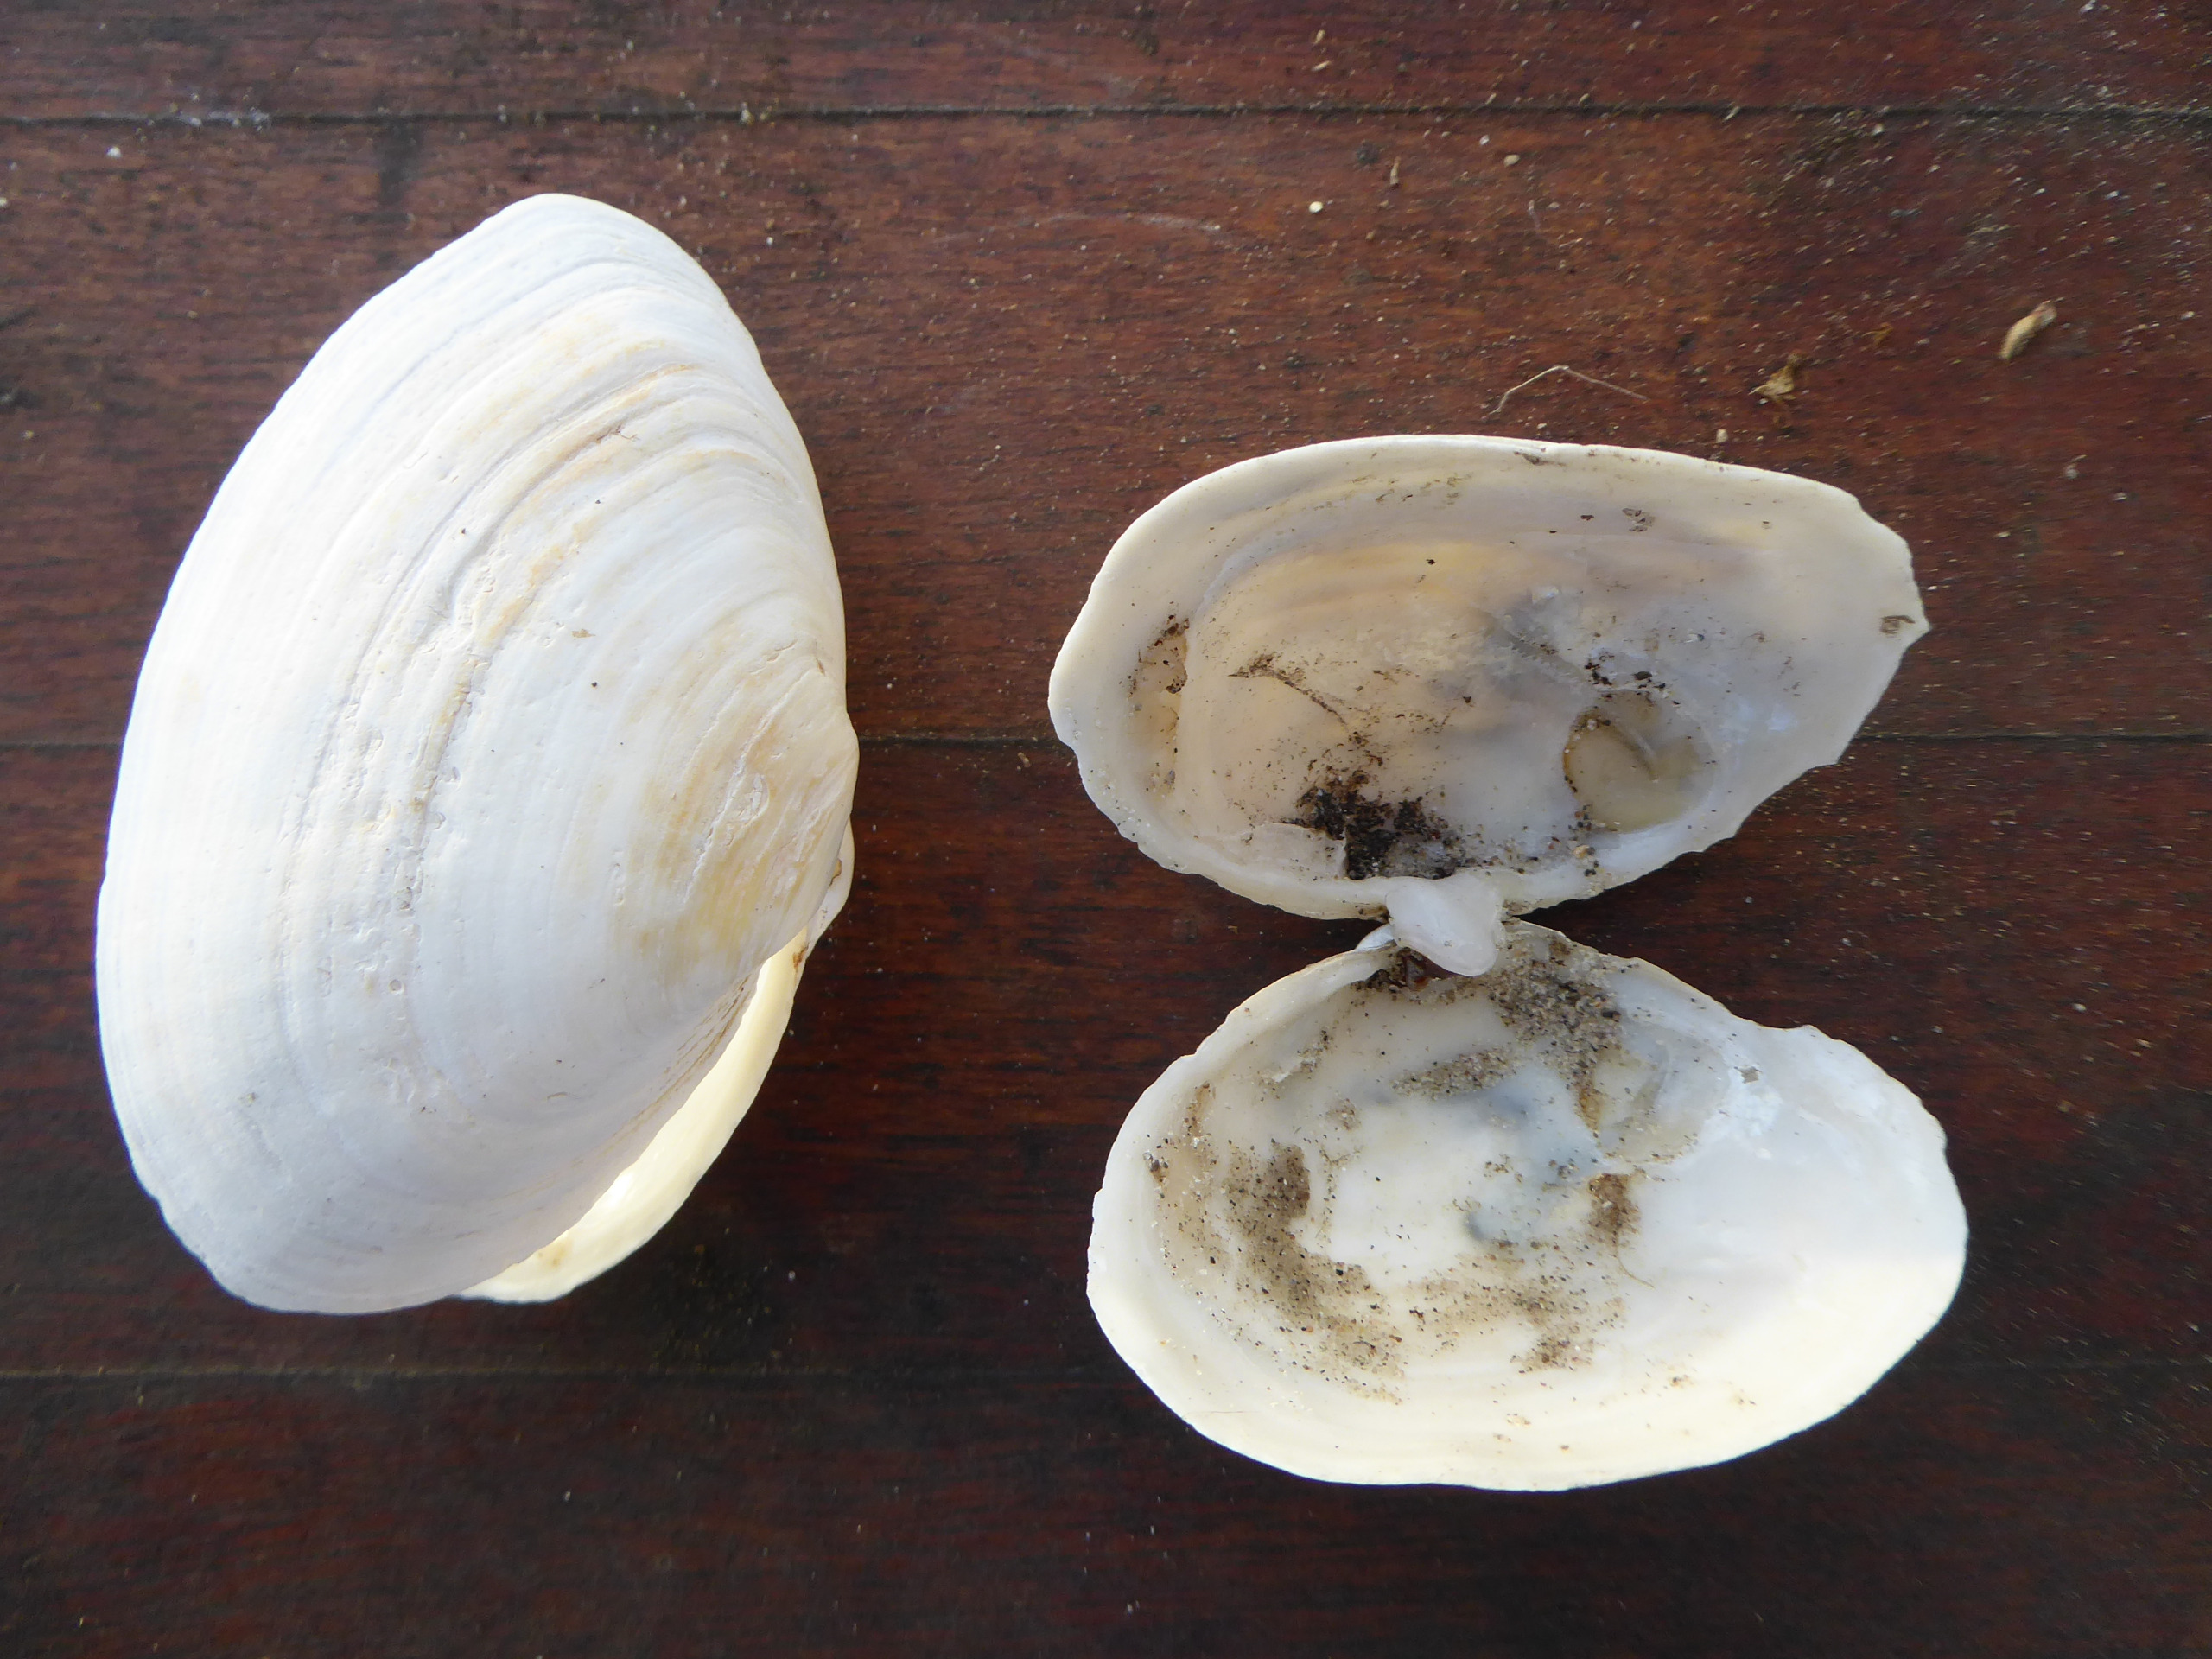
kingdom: Animalia
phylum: Mollusca
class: Bivalvia
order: Myida
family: Myidae
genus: Mya
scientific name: Mya arenaria
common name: Almindelig sandmusling
